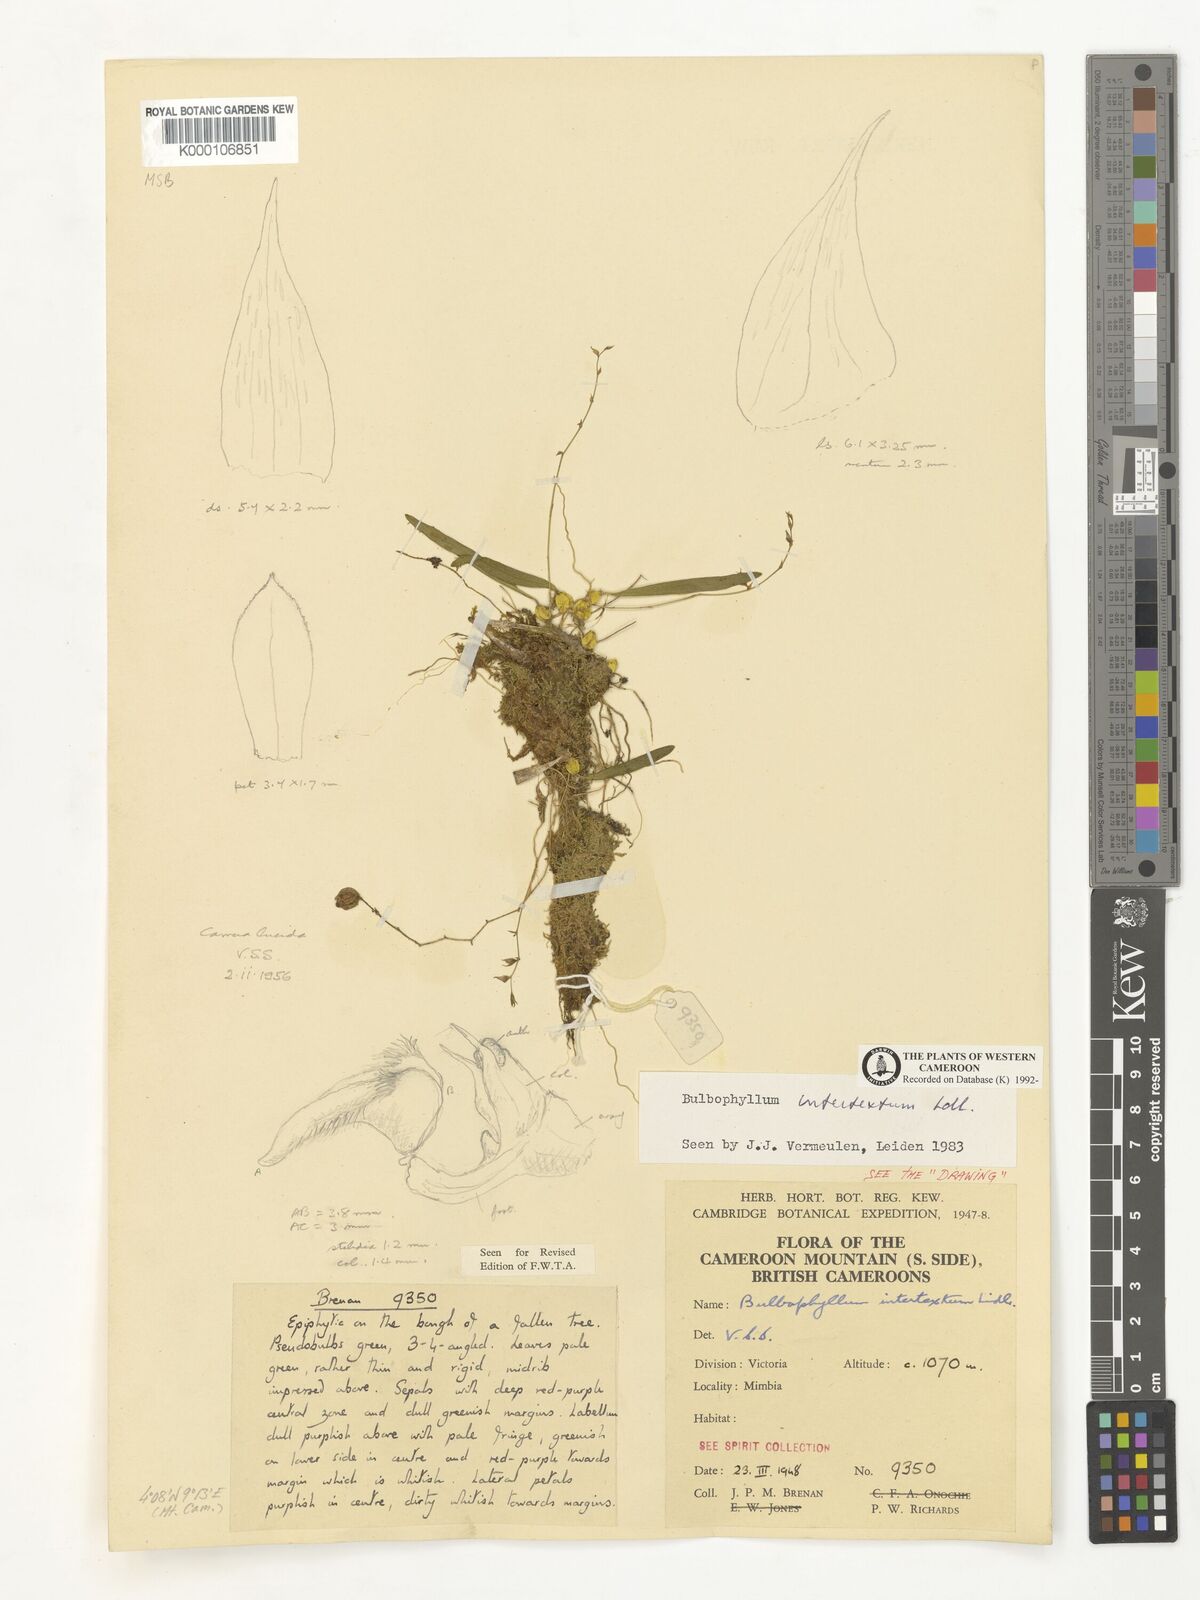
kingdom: Plantae
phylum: Tracheophyta
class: Liliopsida
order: Asparagales
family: Orchidaceae
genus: Bulbophyllum
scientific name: Bulbophyllum intertextum
